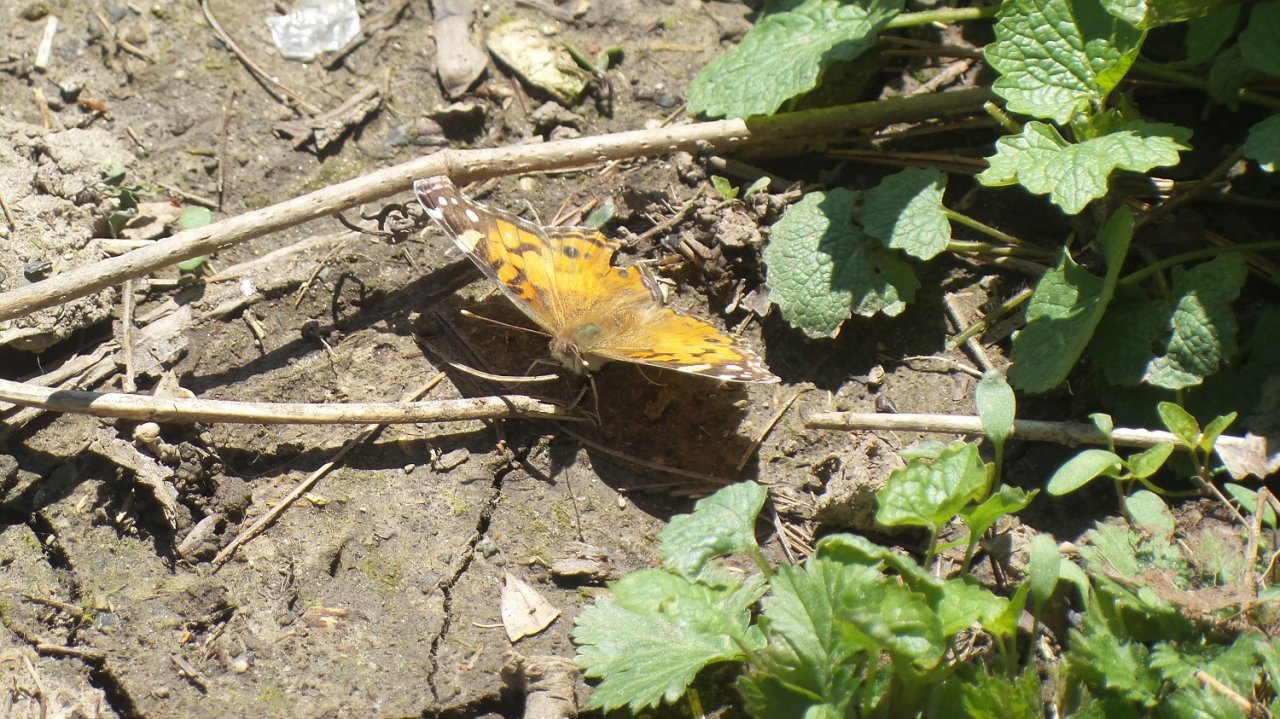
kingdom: Animalia
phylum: Arthropoda
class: Insecta
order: Lepidoptera
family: Nymphalidae
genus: Vanessa
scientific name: Vanessa virginiensis
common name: American Lady
